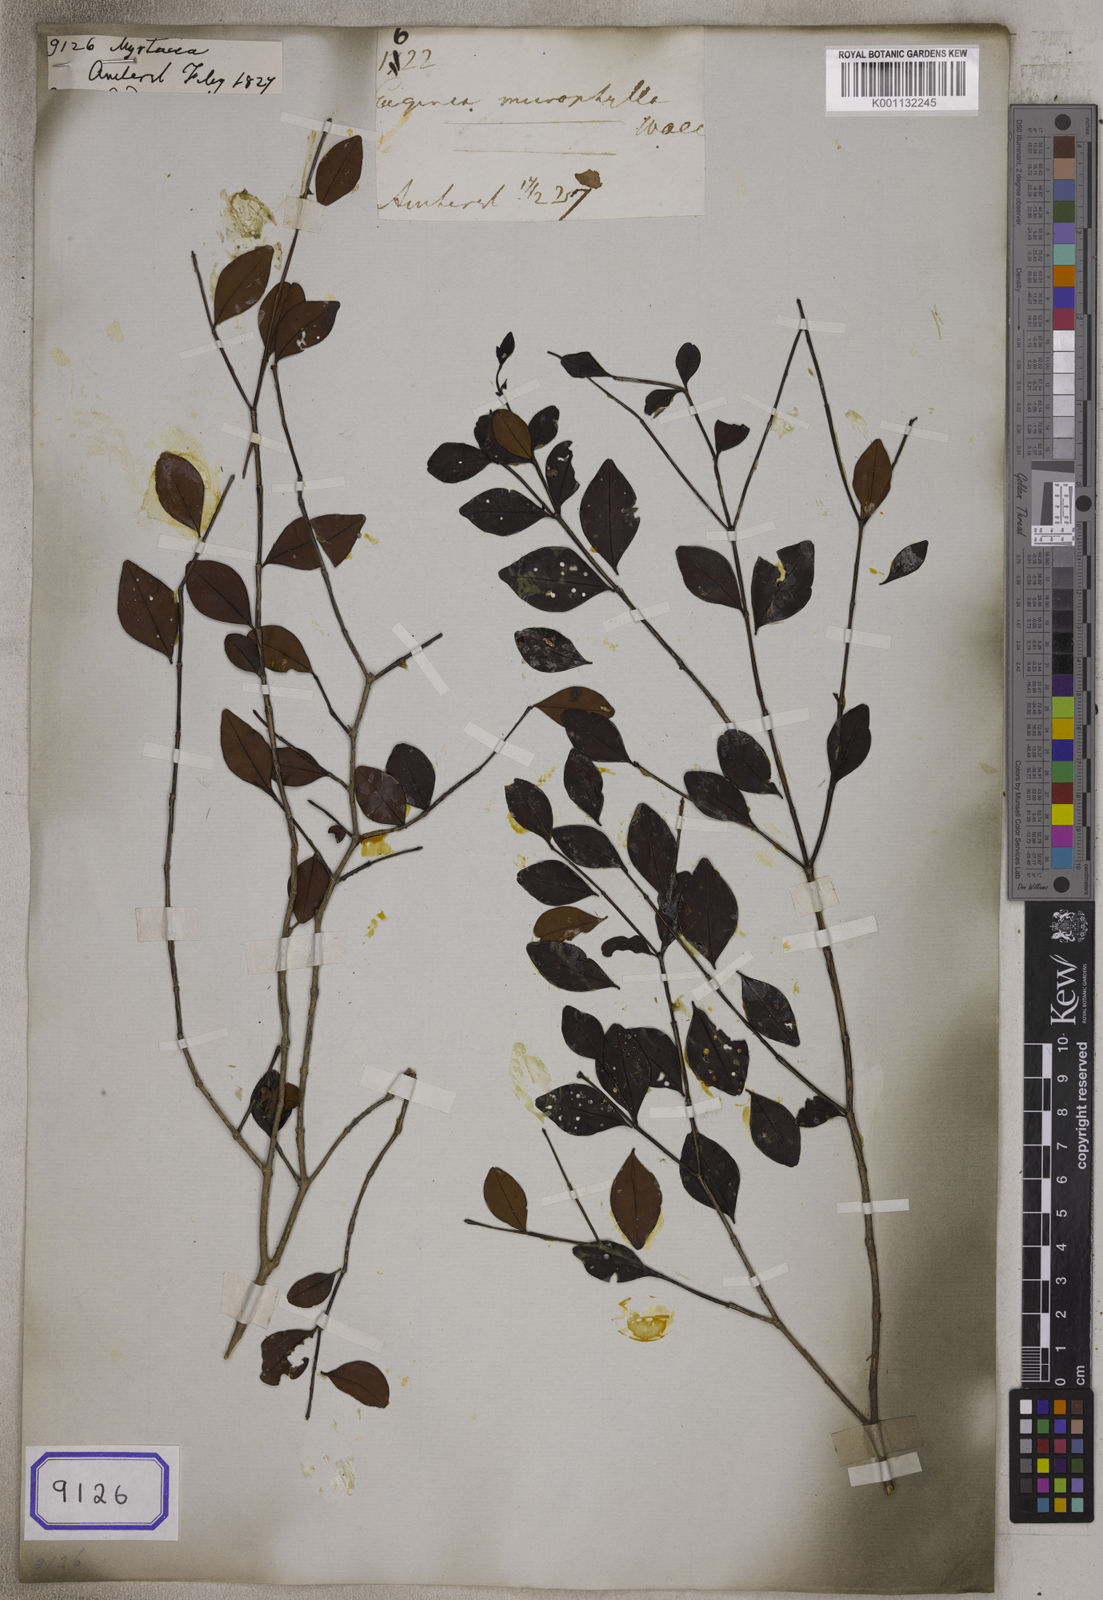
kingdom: Plantae
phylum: Tracheophyta
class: Magnoliopsida
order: Myrtales
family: Myrtaceae
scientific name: Myrtaceae
